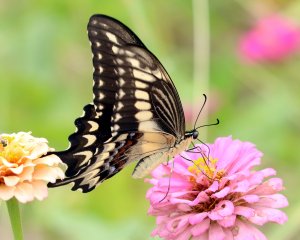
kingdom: Animalia
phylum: Arthropoda
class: Insecta
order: Lepidoptera
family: Papilionidae
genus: Papilio
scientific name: Papilio ornythion
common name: Ornythion Swallowtail
